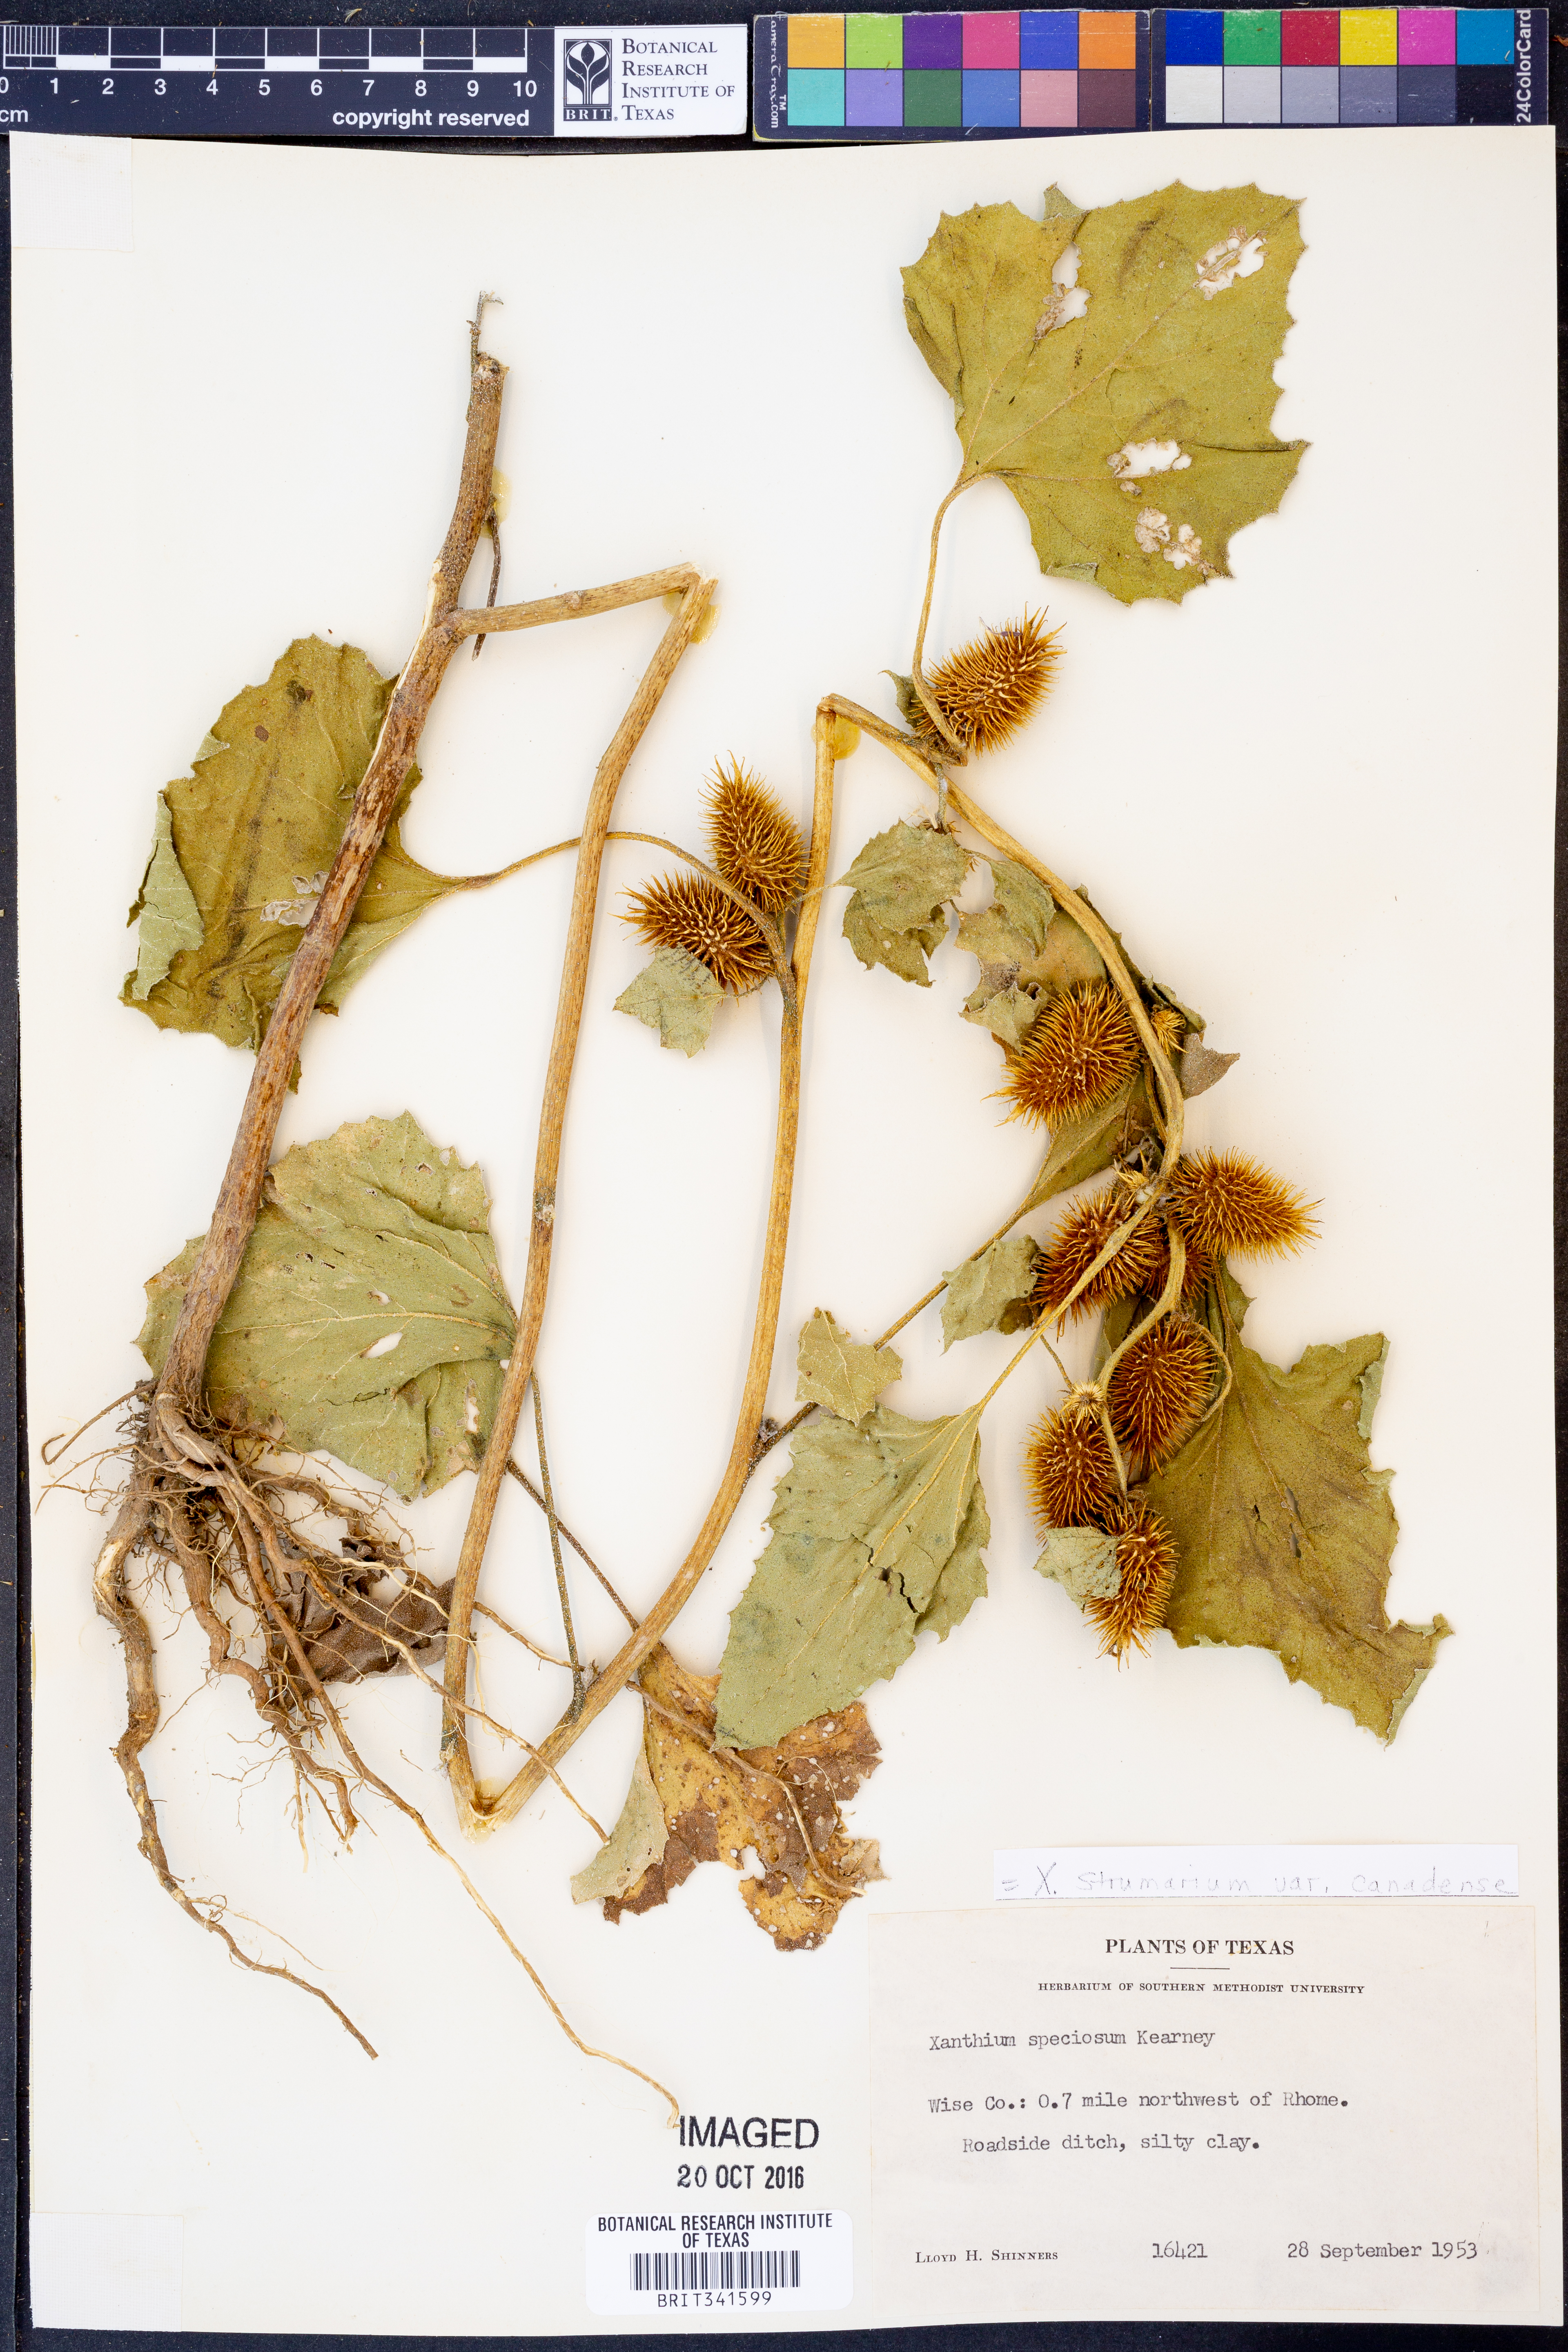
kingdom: Plantae
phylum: Tracheophyta
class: Magnoliopsida
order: Asterales
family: Asteraceae
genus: Xanthium
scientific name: Xanthium orientale
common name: Californian burr
